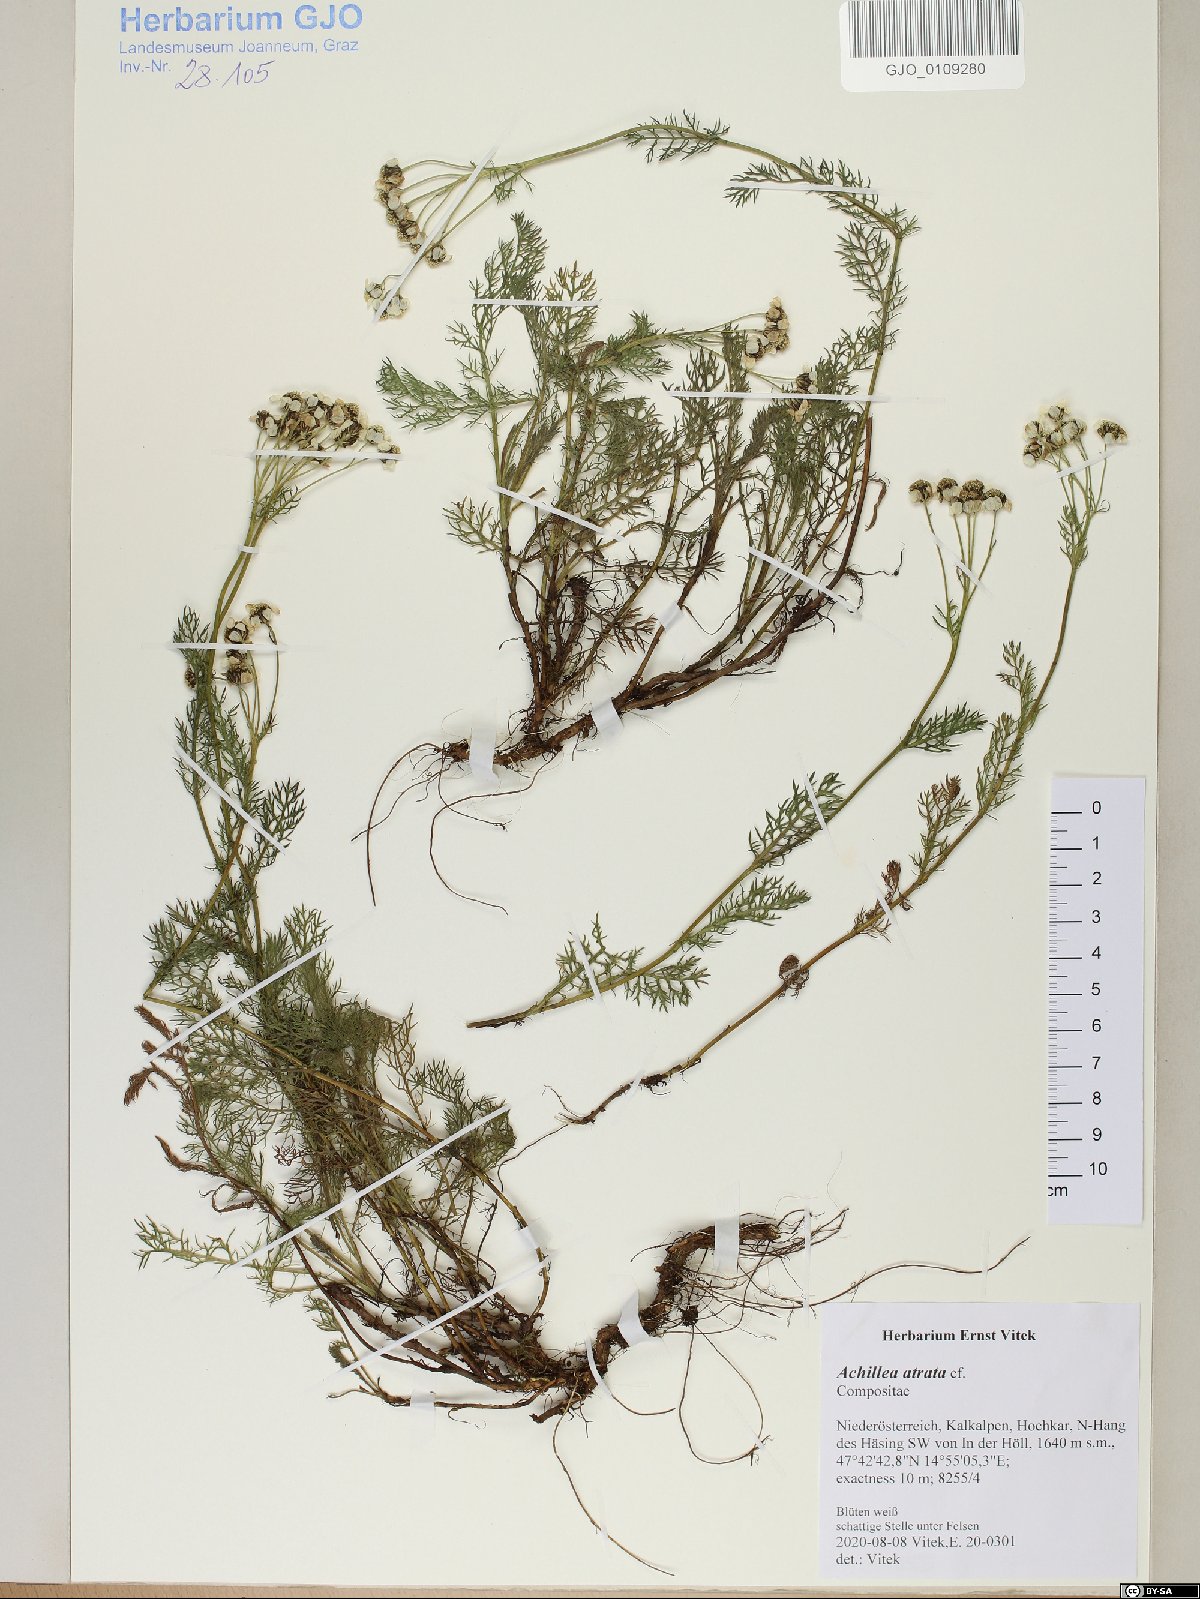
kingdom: Plantae
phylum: Tracheophyta
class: Magnoliopsida
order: Asterales
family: Asteraceae
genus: Achillea
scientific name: Achillea atrata
